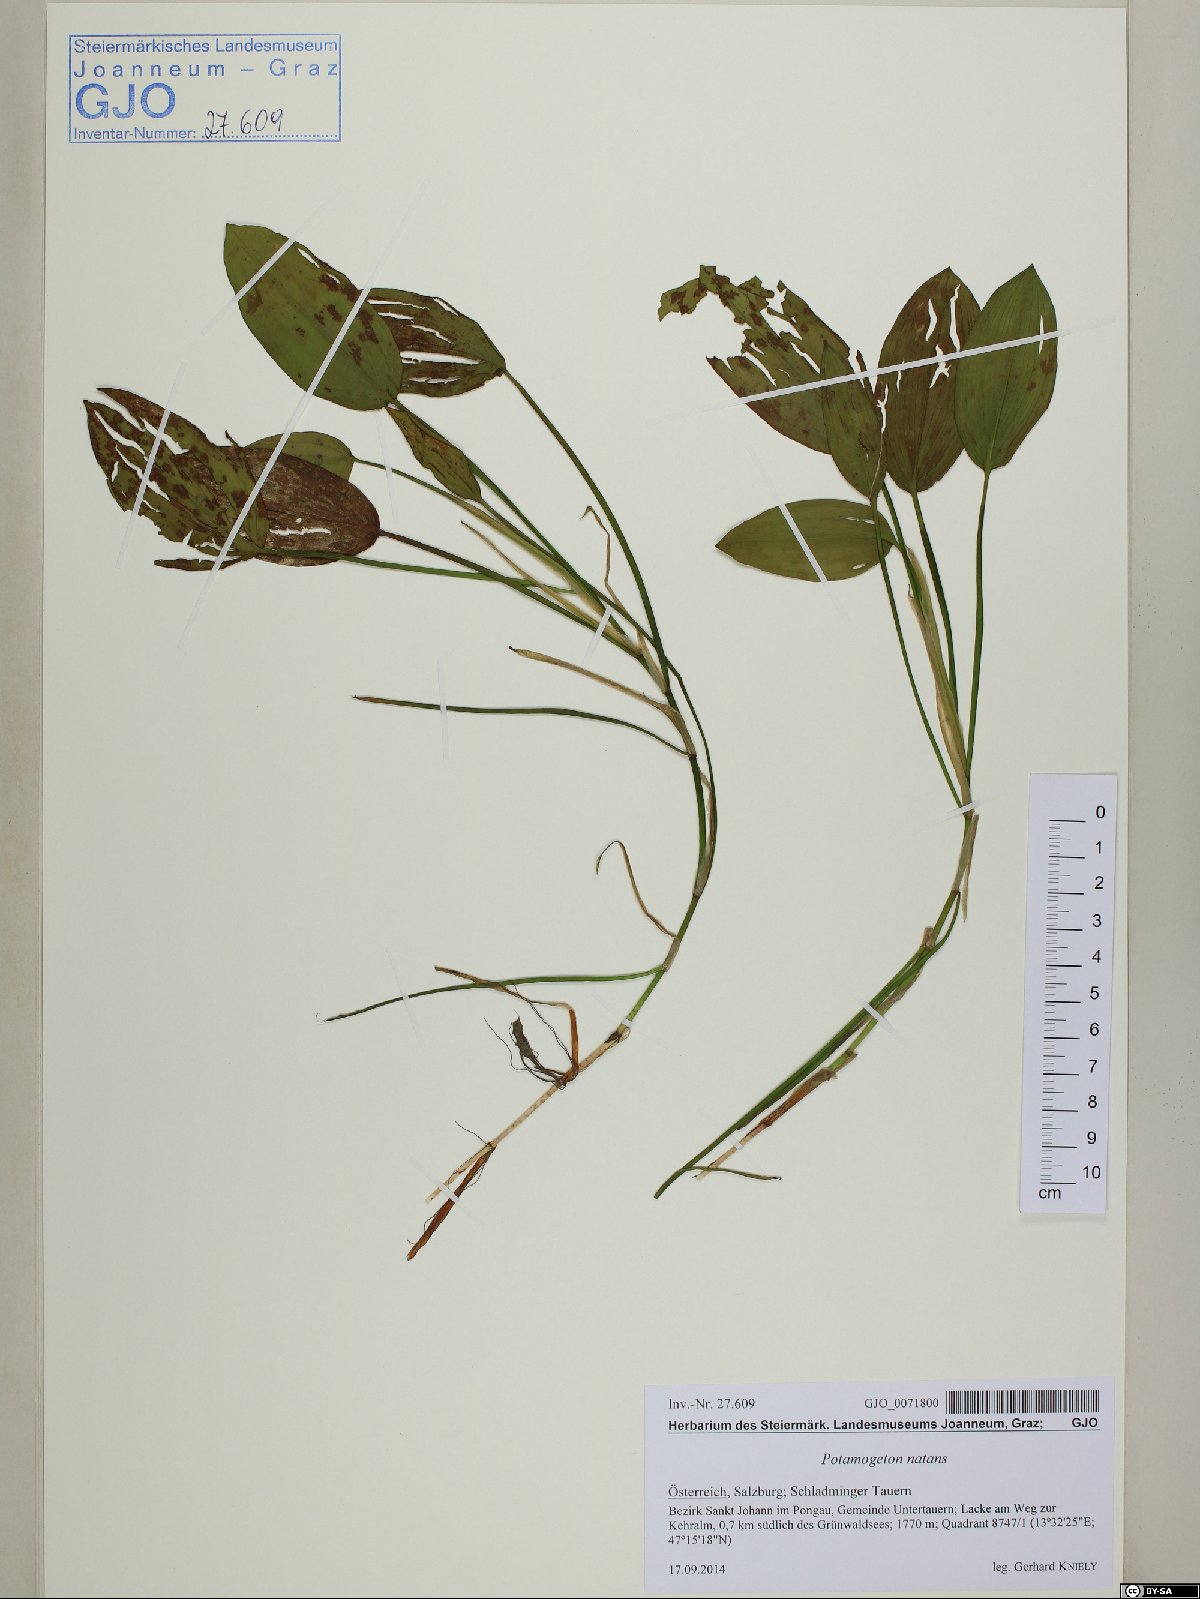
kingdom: Plantae
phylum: Tracheophyta
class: Liliopsida
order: Alismatales
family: Potamogetonaceae
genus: Potamogeton
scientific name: Potamogeton natans
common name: Broad-leaved pondweed
